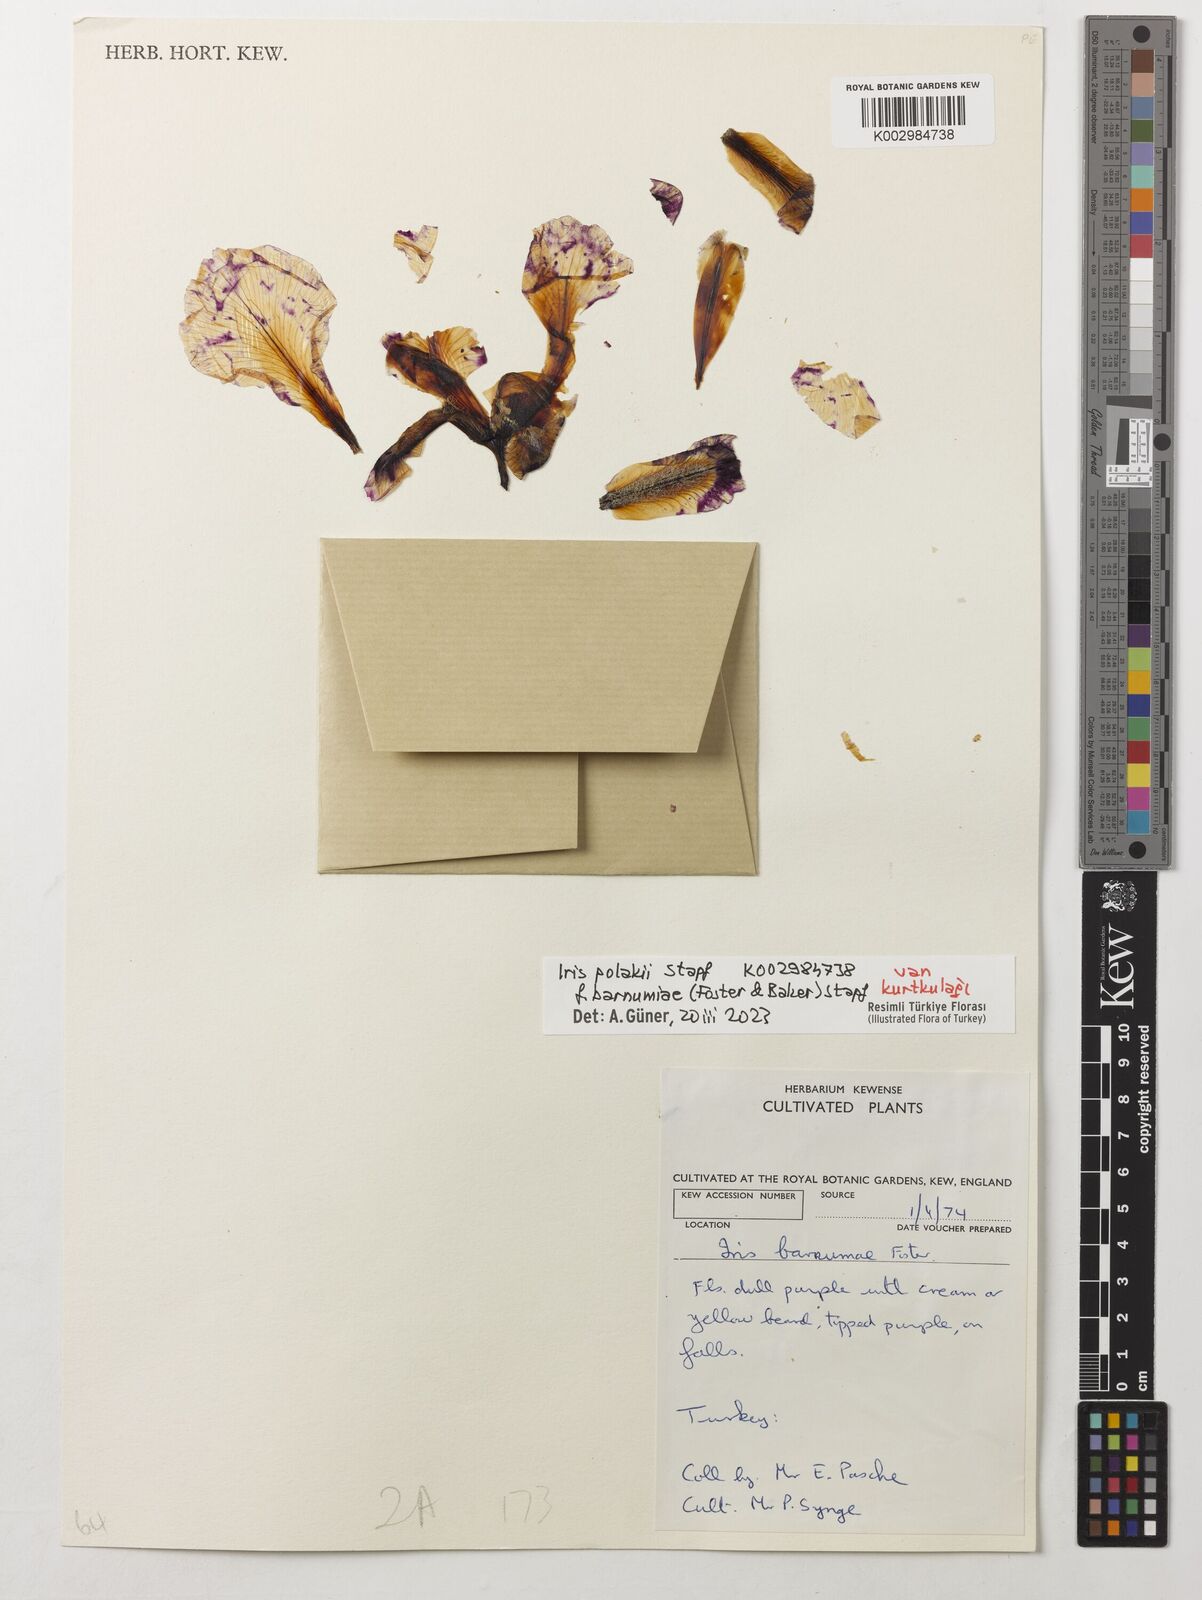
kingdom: Plantae
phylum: Tracheophyta
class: Liliopsida
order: Asparagales
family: Iridaceae
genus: Iris
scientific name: Iris barnumiae
